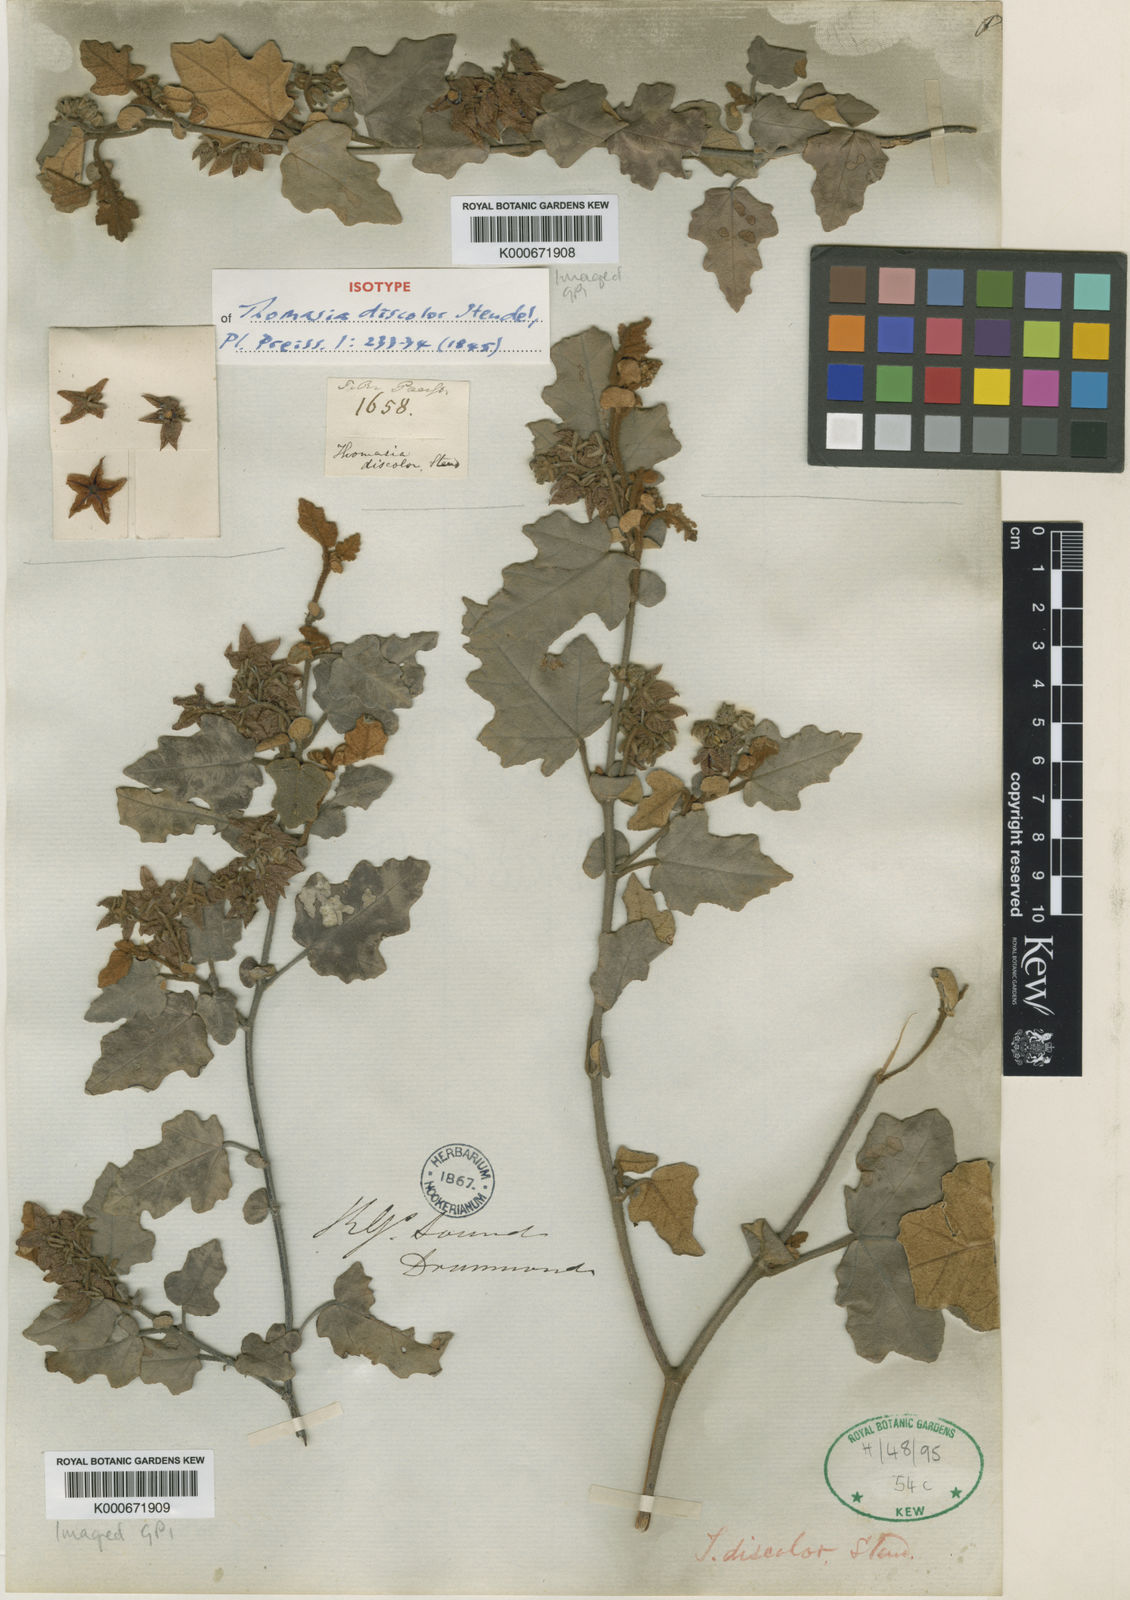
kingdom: Plantae
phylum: Tracheophyta
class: Magnoliopsida
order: Malvales
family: Malvaceae
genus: Thomasia
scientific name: Thomasia discolor
